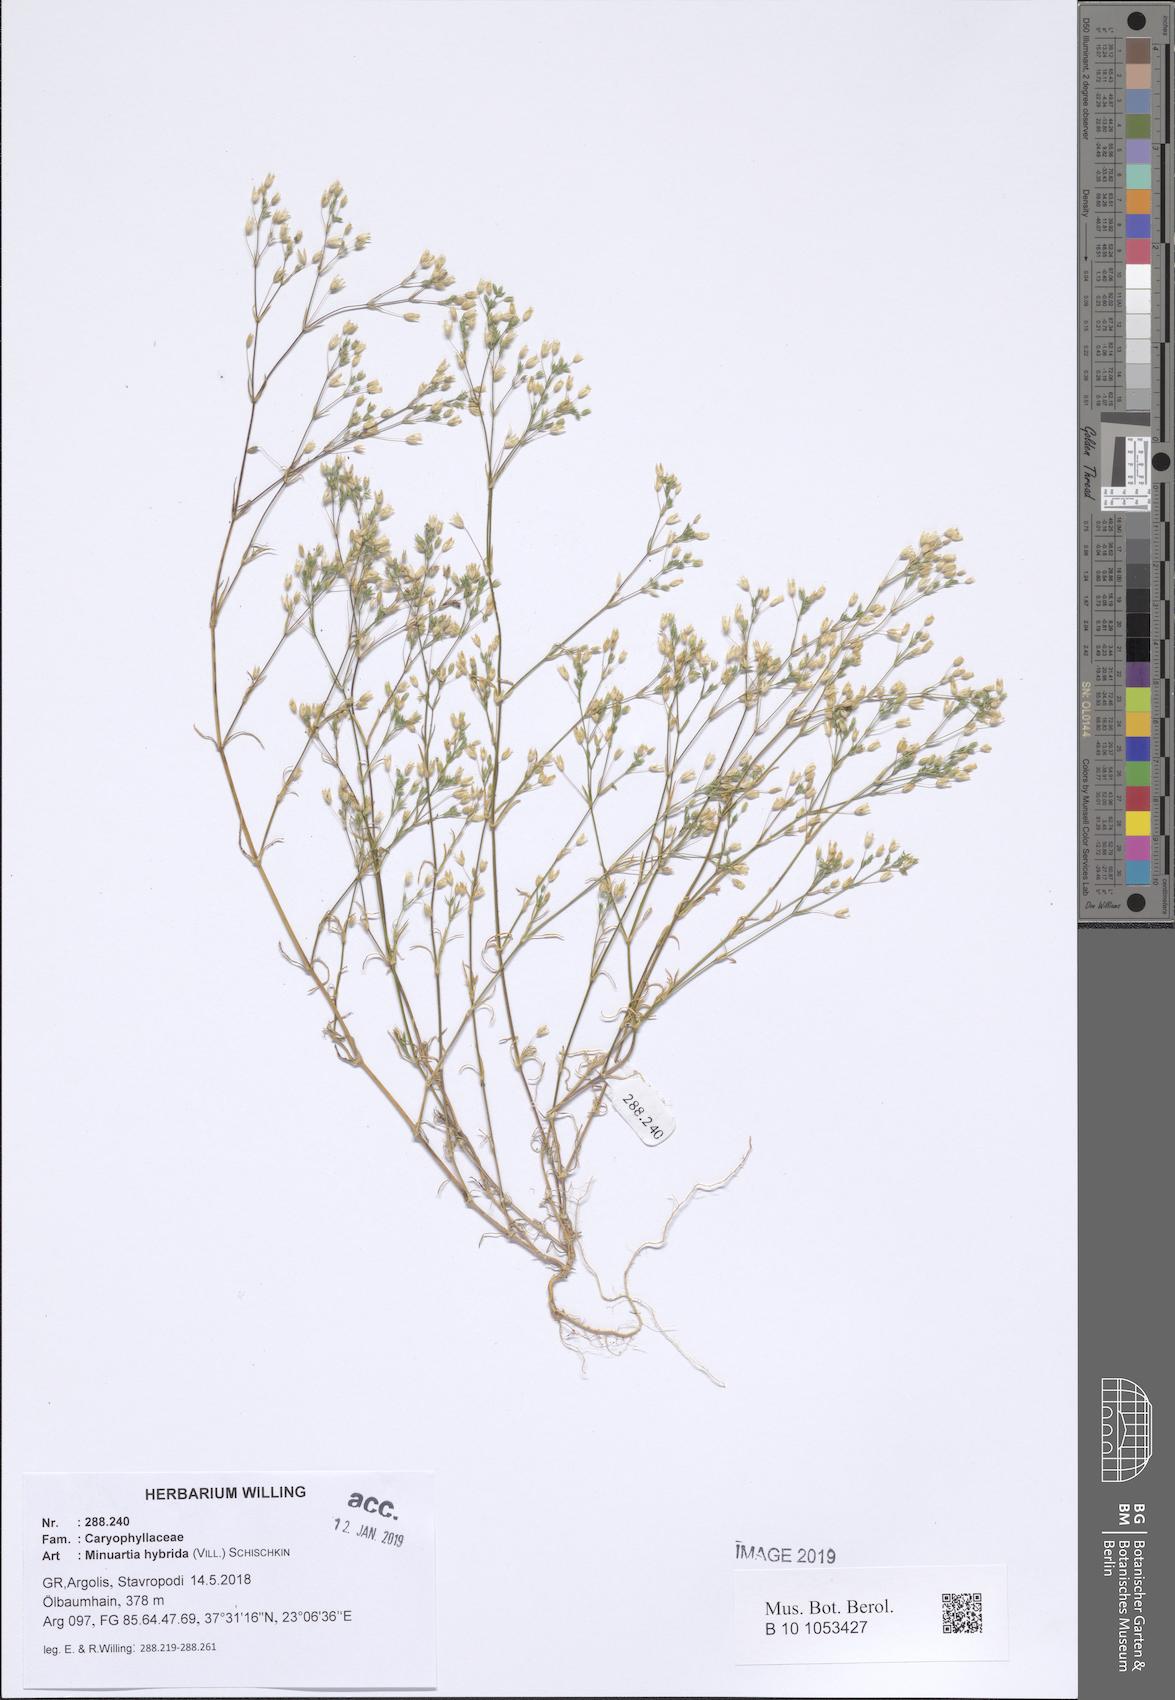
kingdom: Plantae
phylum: Tracheophyta
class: Magnoliopsida
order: Caryophyllales
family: Caryophyllaceae
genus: Sabulina
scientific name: Sabulina tenuifolia
